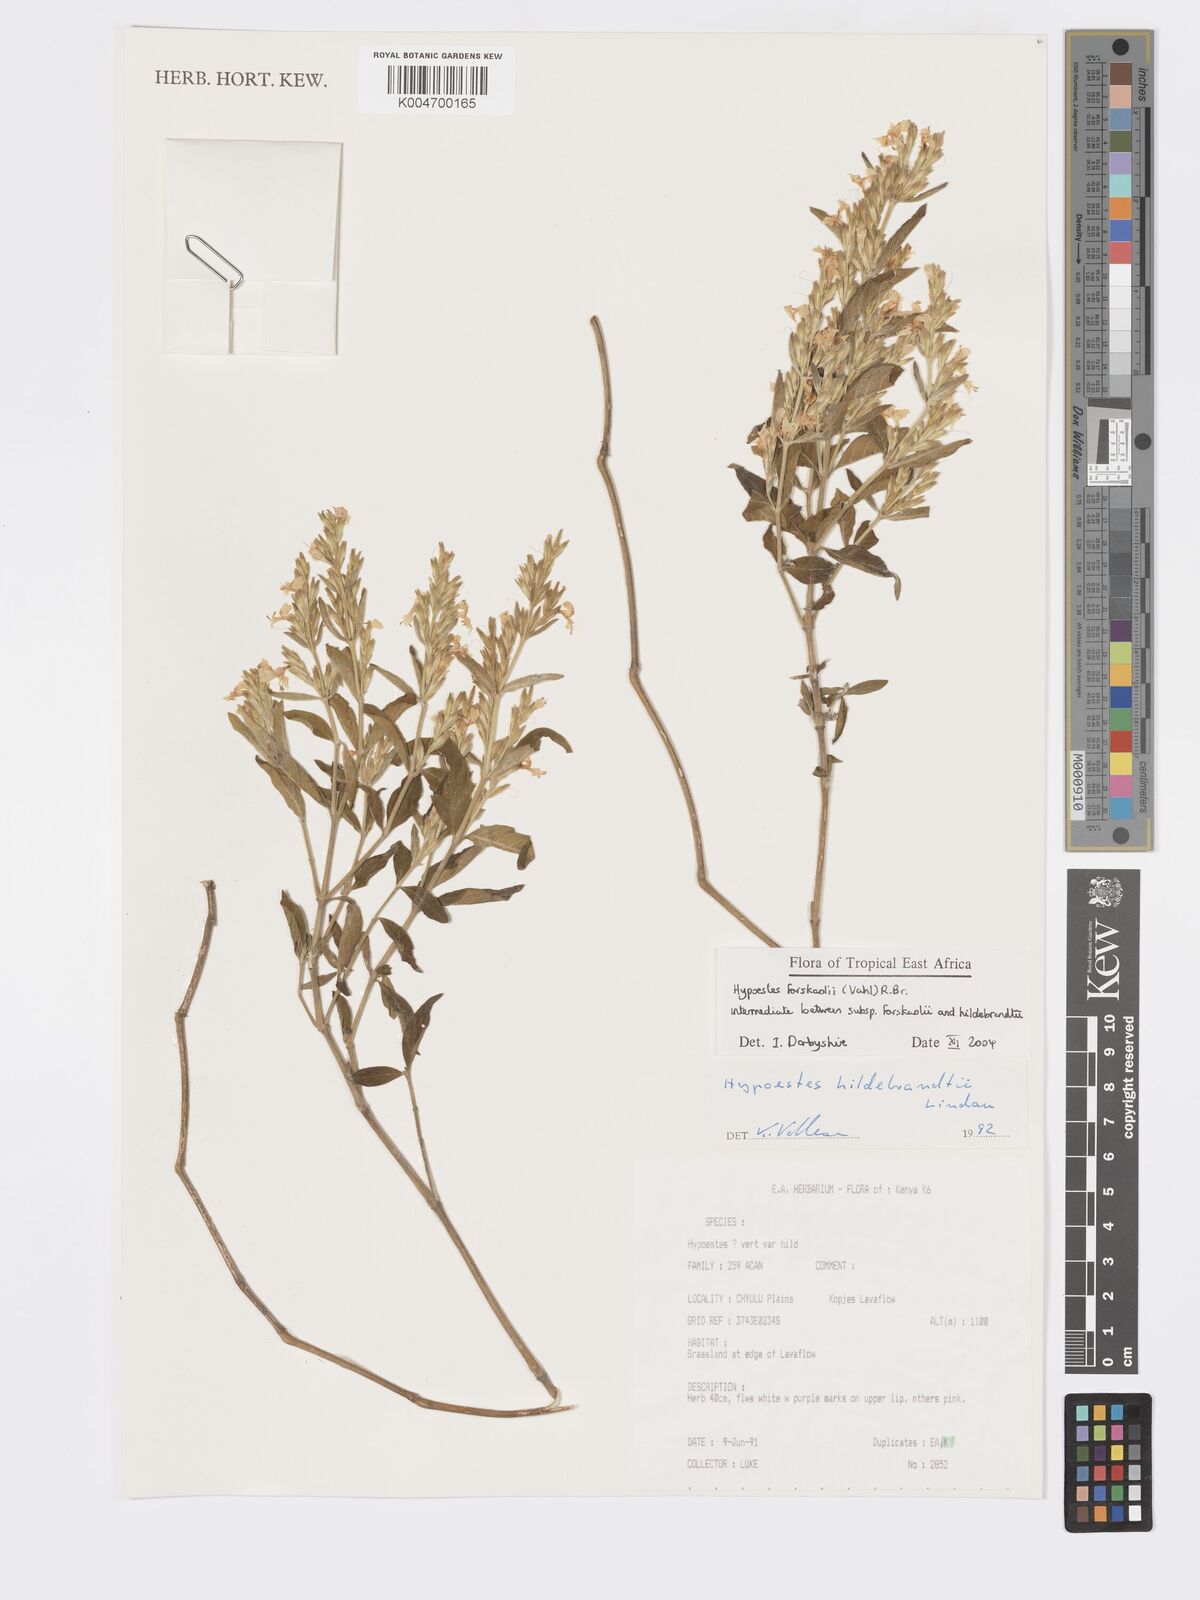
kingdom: Plantae
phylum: Tracheophyta
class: Magnoliopsida
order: Lamiales
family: Acanthaceae
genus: Hypoestes
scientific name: Hypoestes forskaolii
